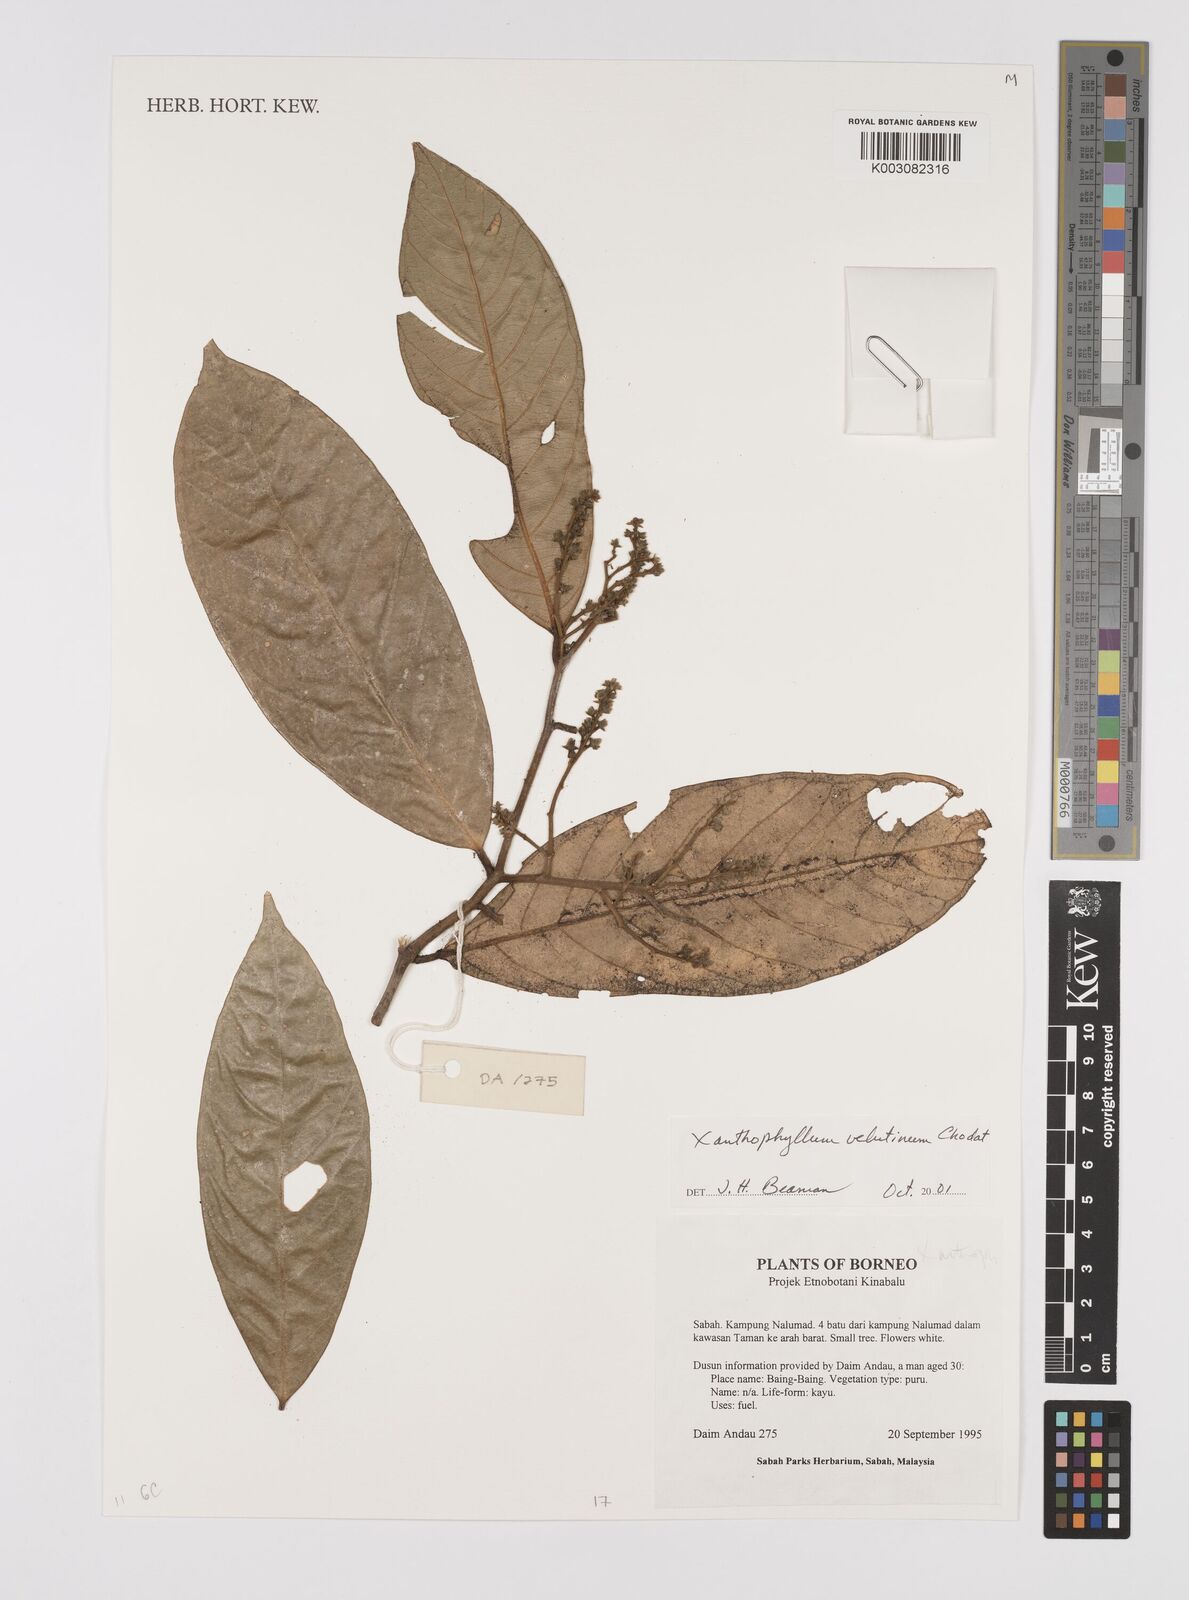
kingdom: Plantae
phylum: Tracheophyta
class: Magnoliopsida
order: Fabales
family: Polygalaceae
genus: Xanthophyllum
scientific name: Xanthophyllum velutinum
